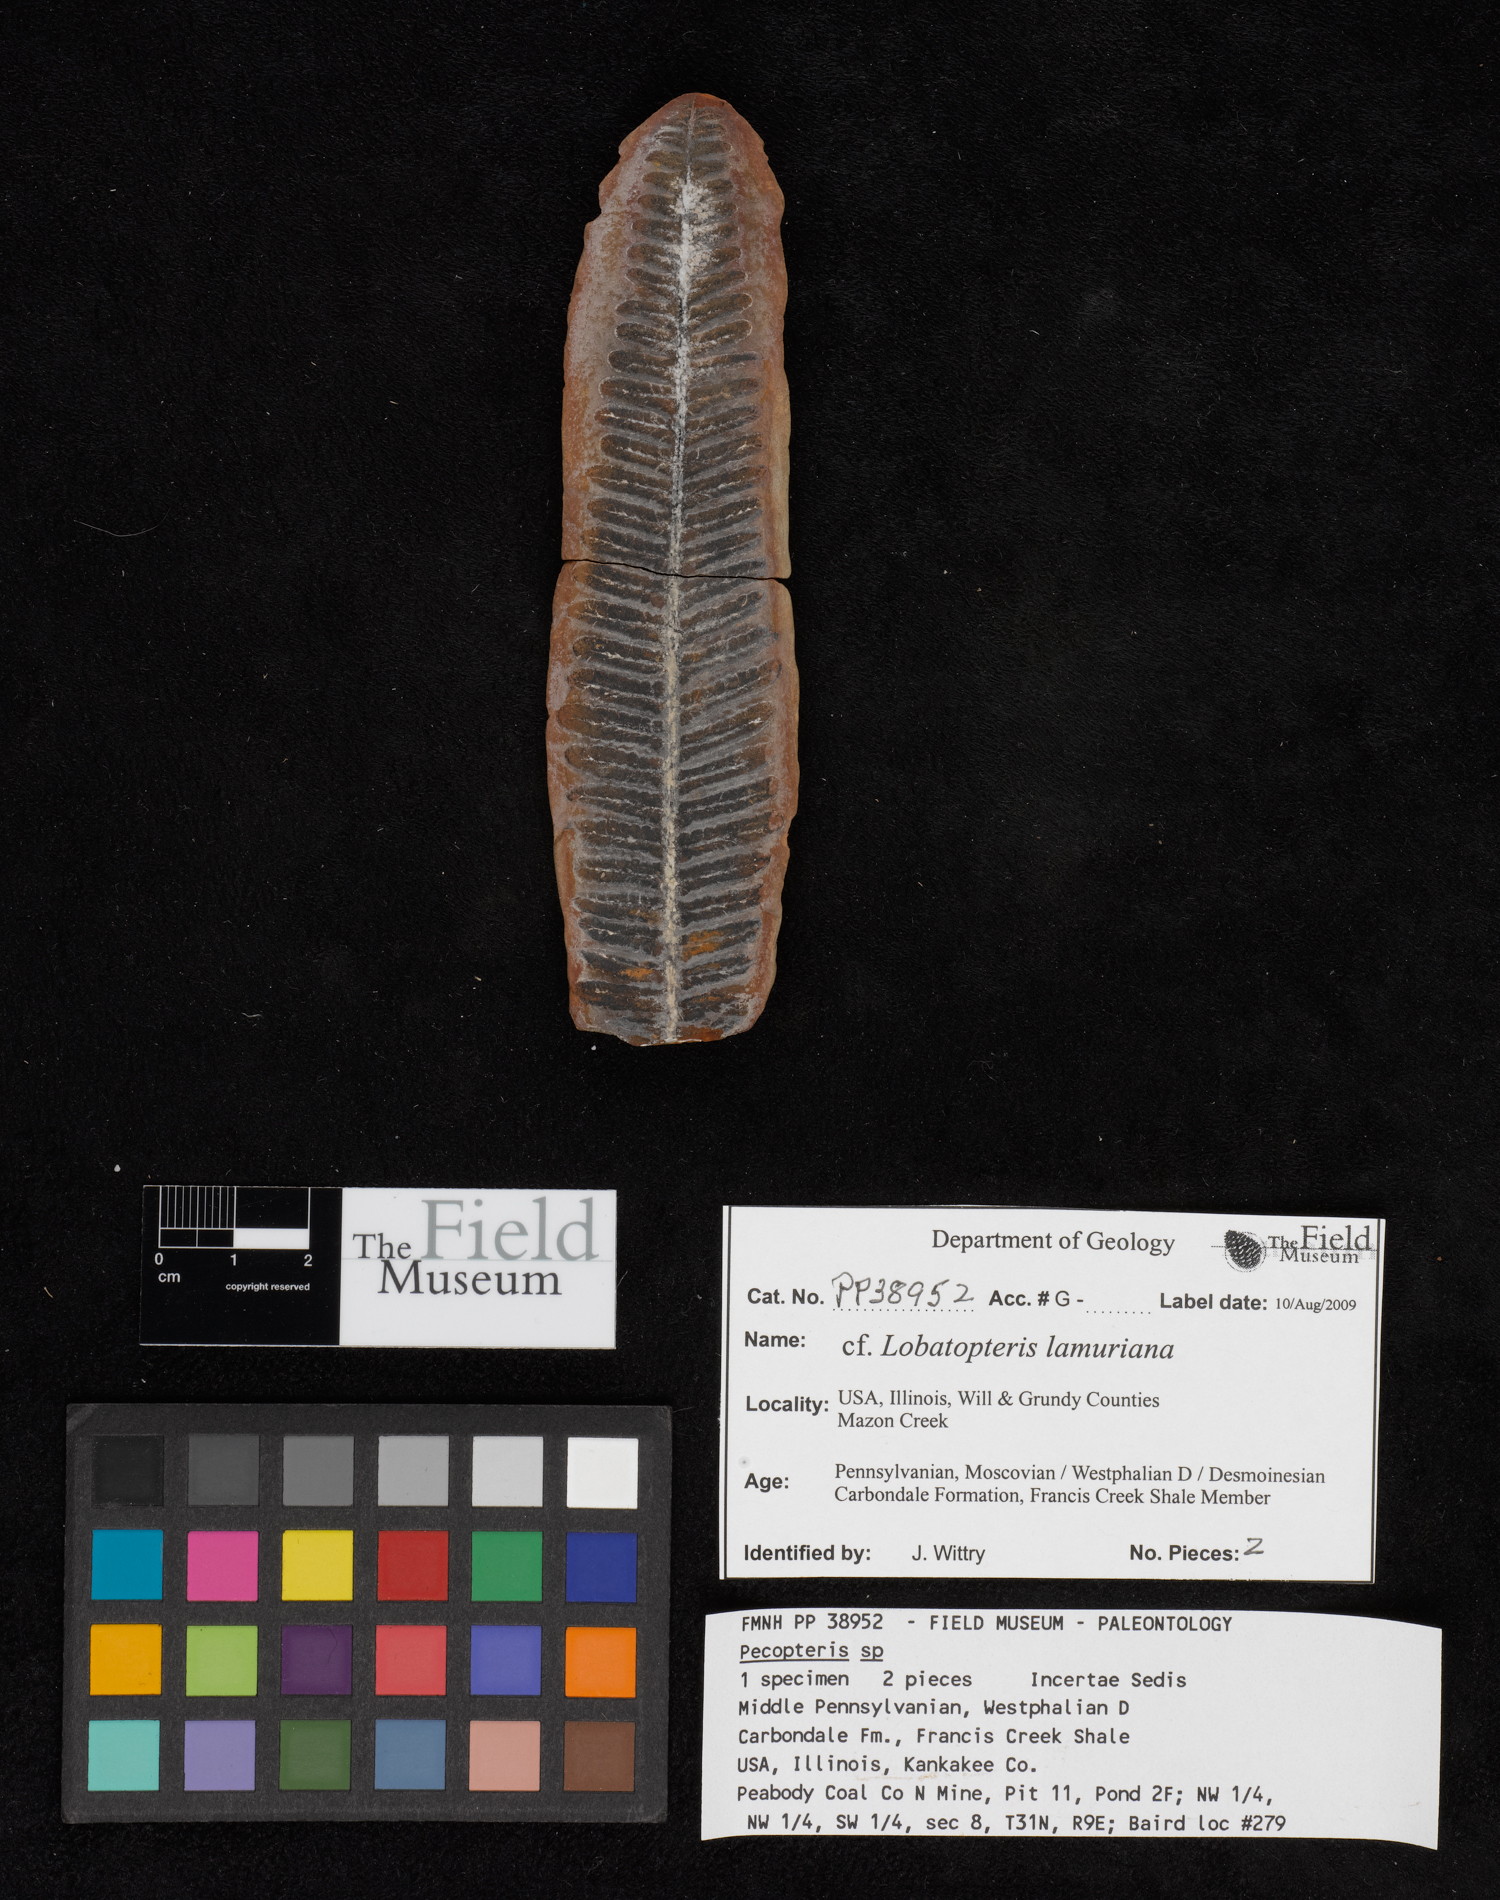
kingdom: Plantae
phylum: Tracheophyta
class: Polypodiopsida
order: Marattiales
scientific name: Marattiales
